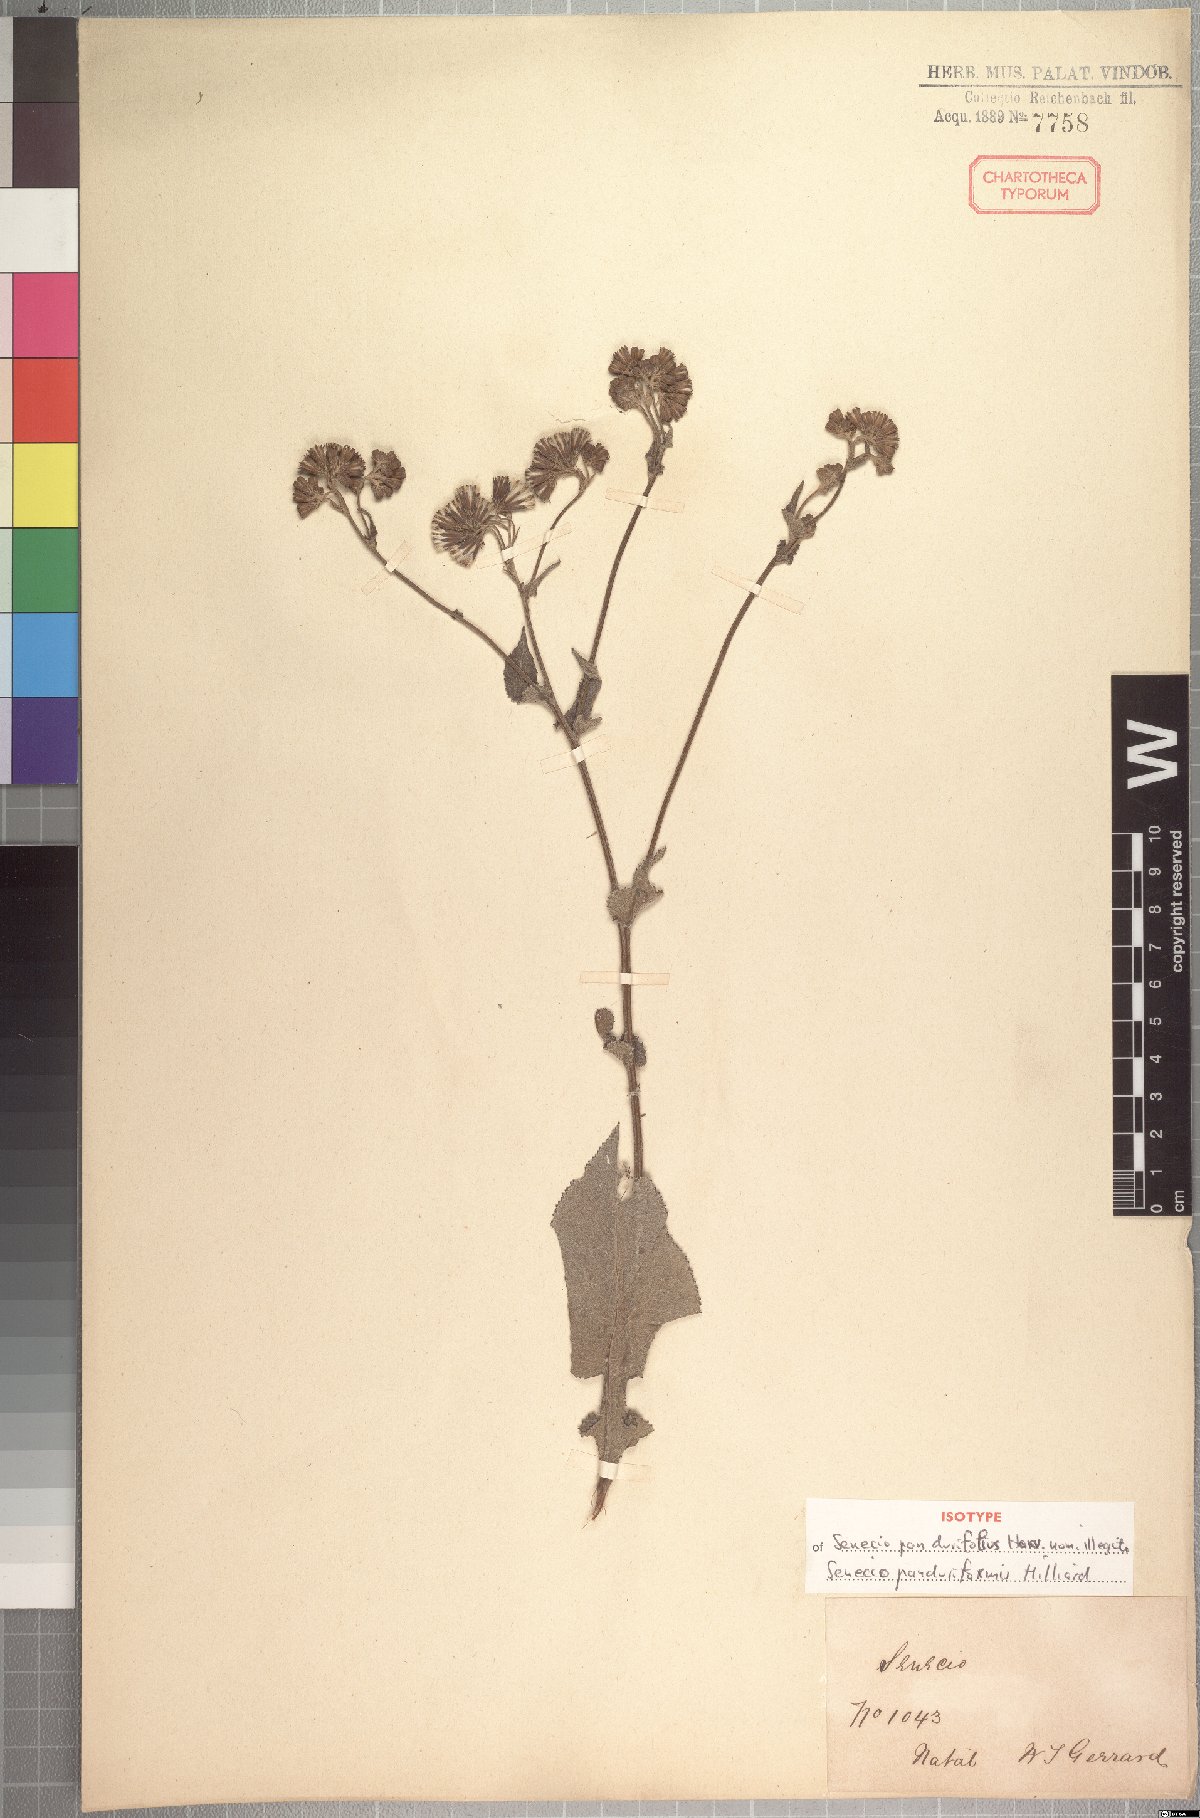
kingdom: Plantae
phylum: Tracheophyta
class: Magnoliopsida
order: Asterales
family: Asteraceae
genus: Senecio
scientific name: Senecio panduriformis
